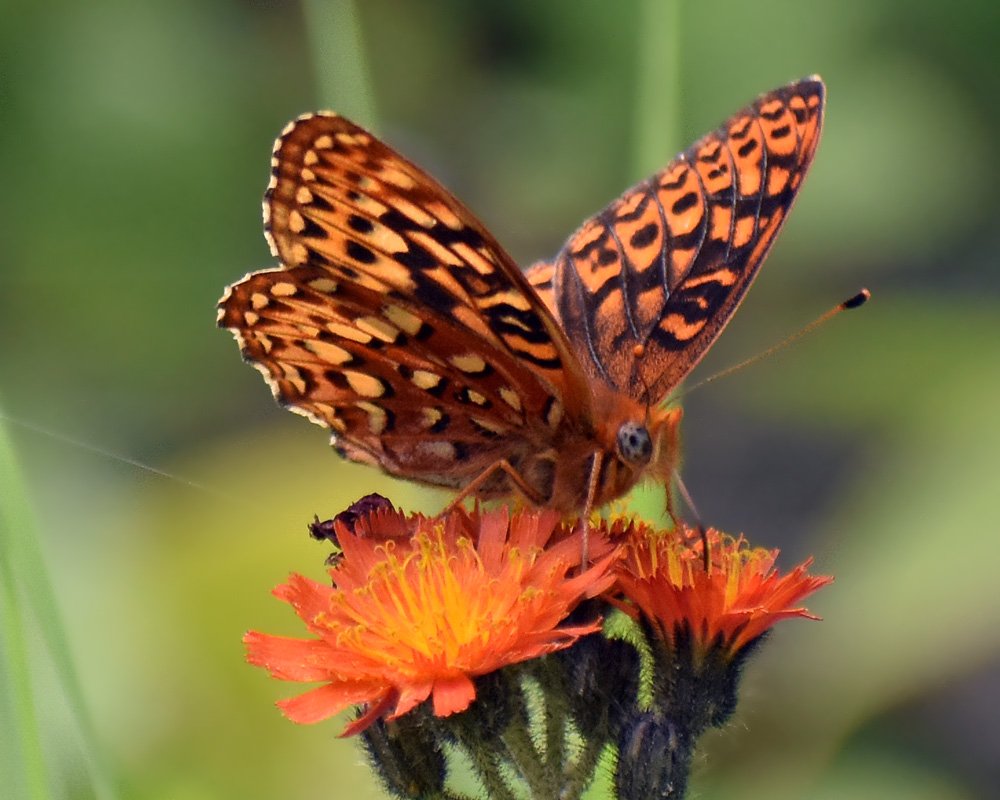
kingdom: Animalia
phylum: Arthropoda
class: Insecta
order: Lepidoptera
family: Nymphalidae
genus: Speyeria
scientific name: Speyeria hydaspe
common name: Hydaspe Fritillary
